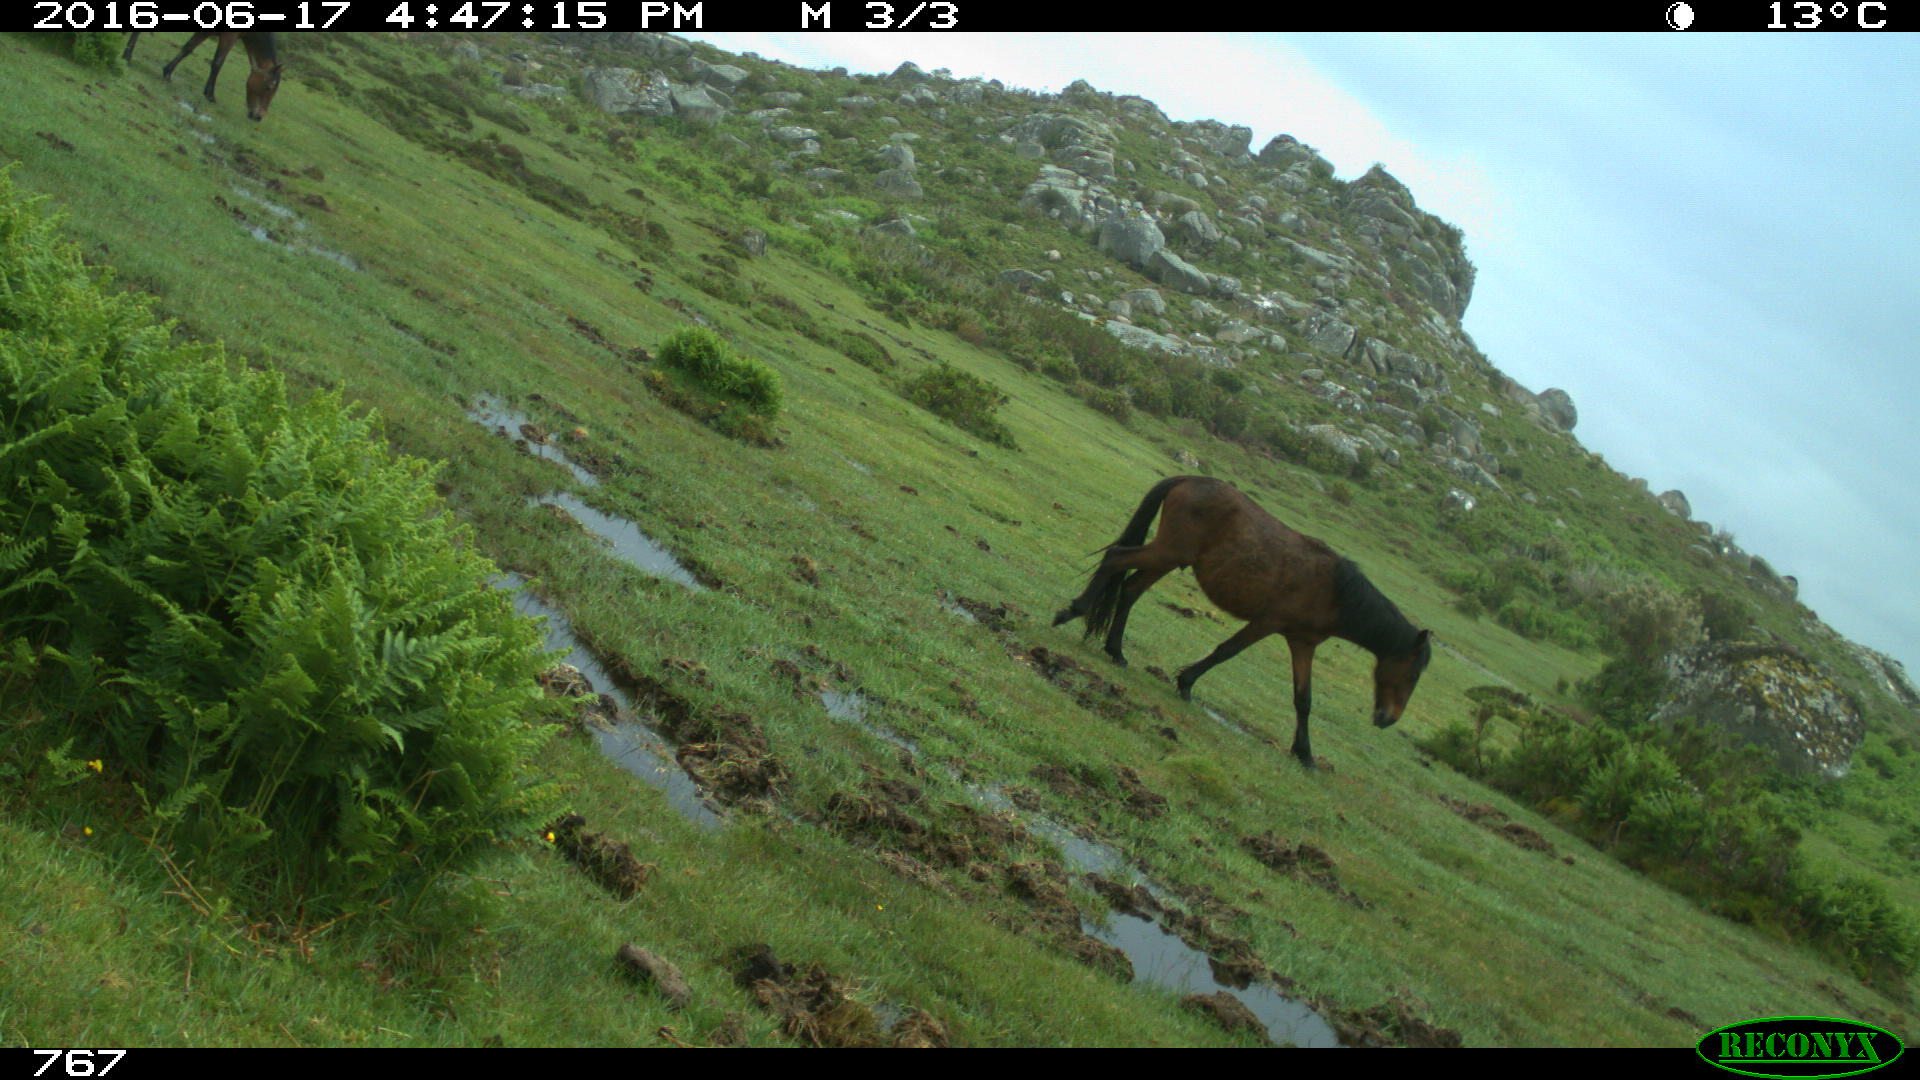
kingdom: Animalia
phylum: Chordata
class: Mammalia
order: Perissodactyla
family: Equidae
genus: Equus
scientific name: Equus caballus
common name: Horse
